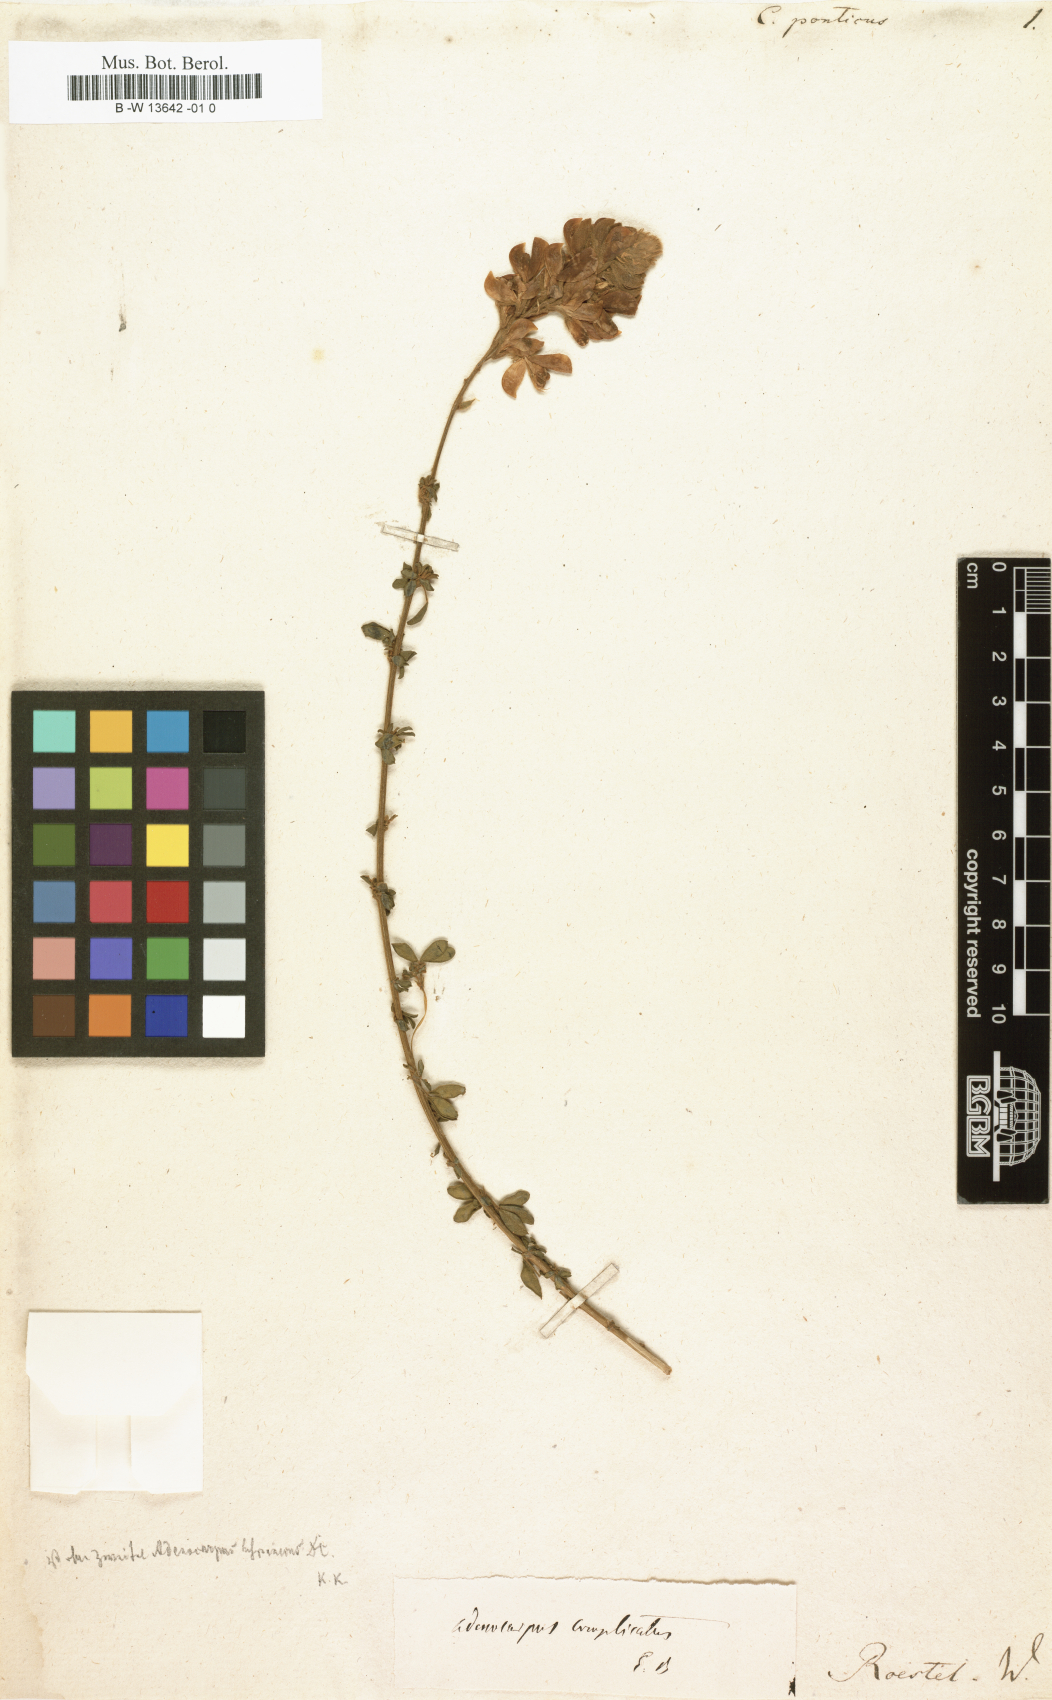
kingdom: Plantae
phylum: Tracheophyta
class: Magnoliopsida
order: Fabales
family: Fabaceae
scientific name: Fabaceae
